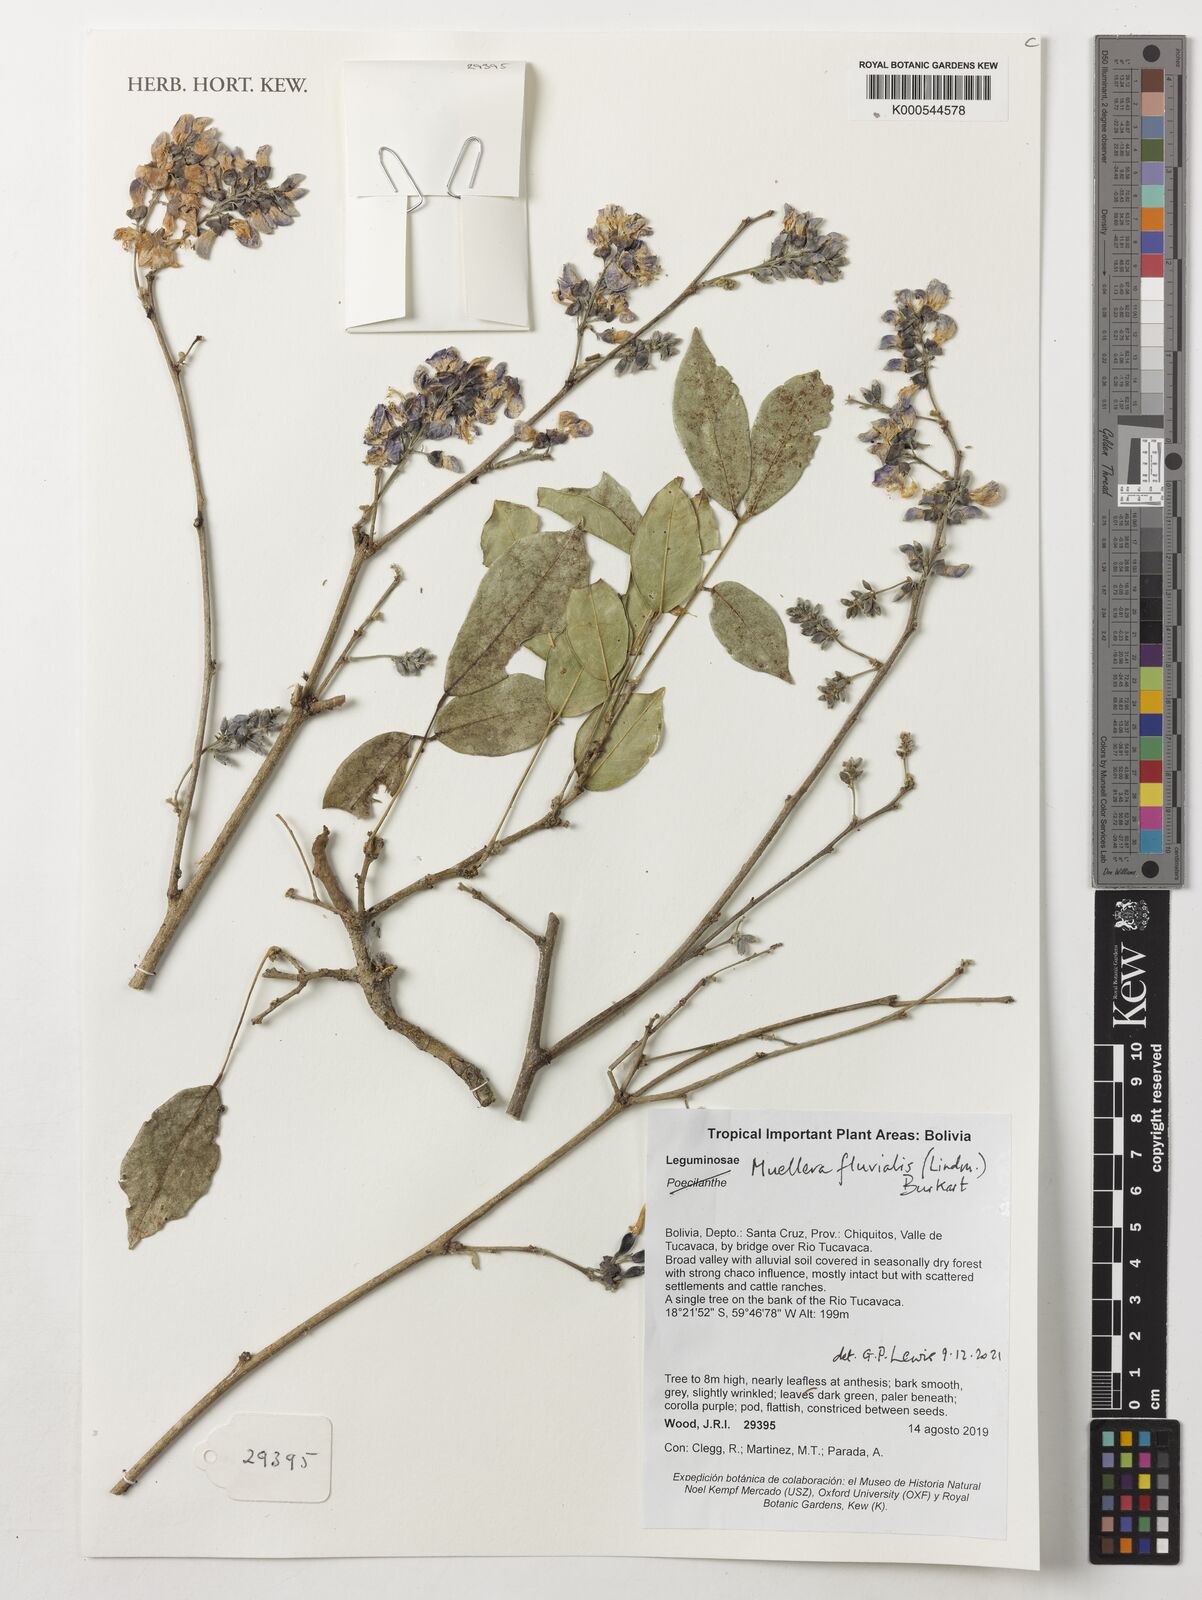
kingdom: Plantae
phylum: Tracheophyta
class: Magnoliopsida
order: Fabales
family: Fabaceae
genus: Muellera
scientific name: Muellera fluvialis
